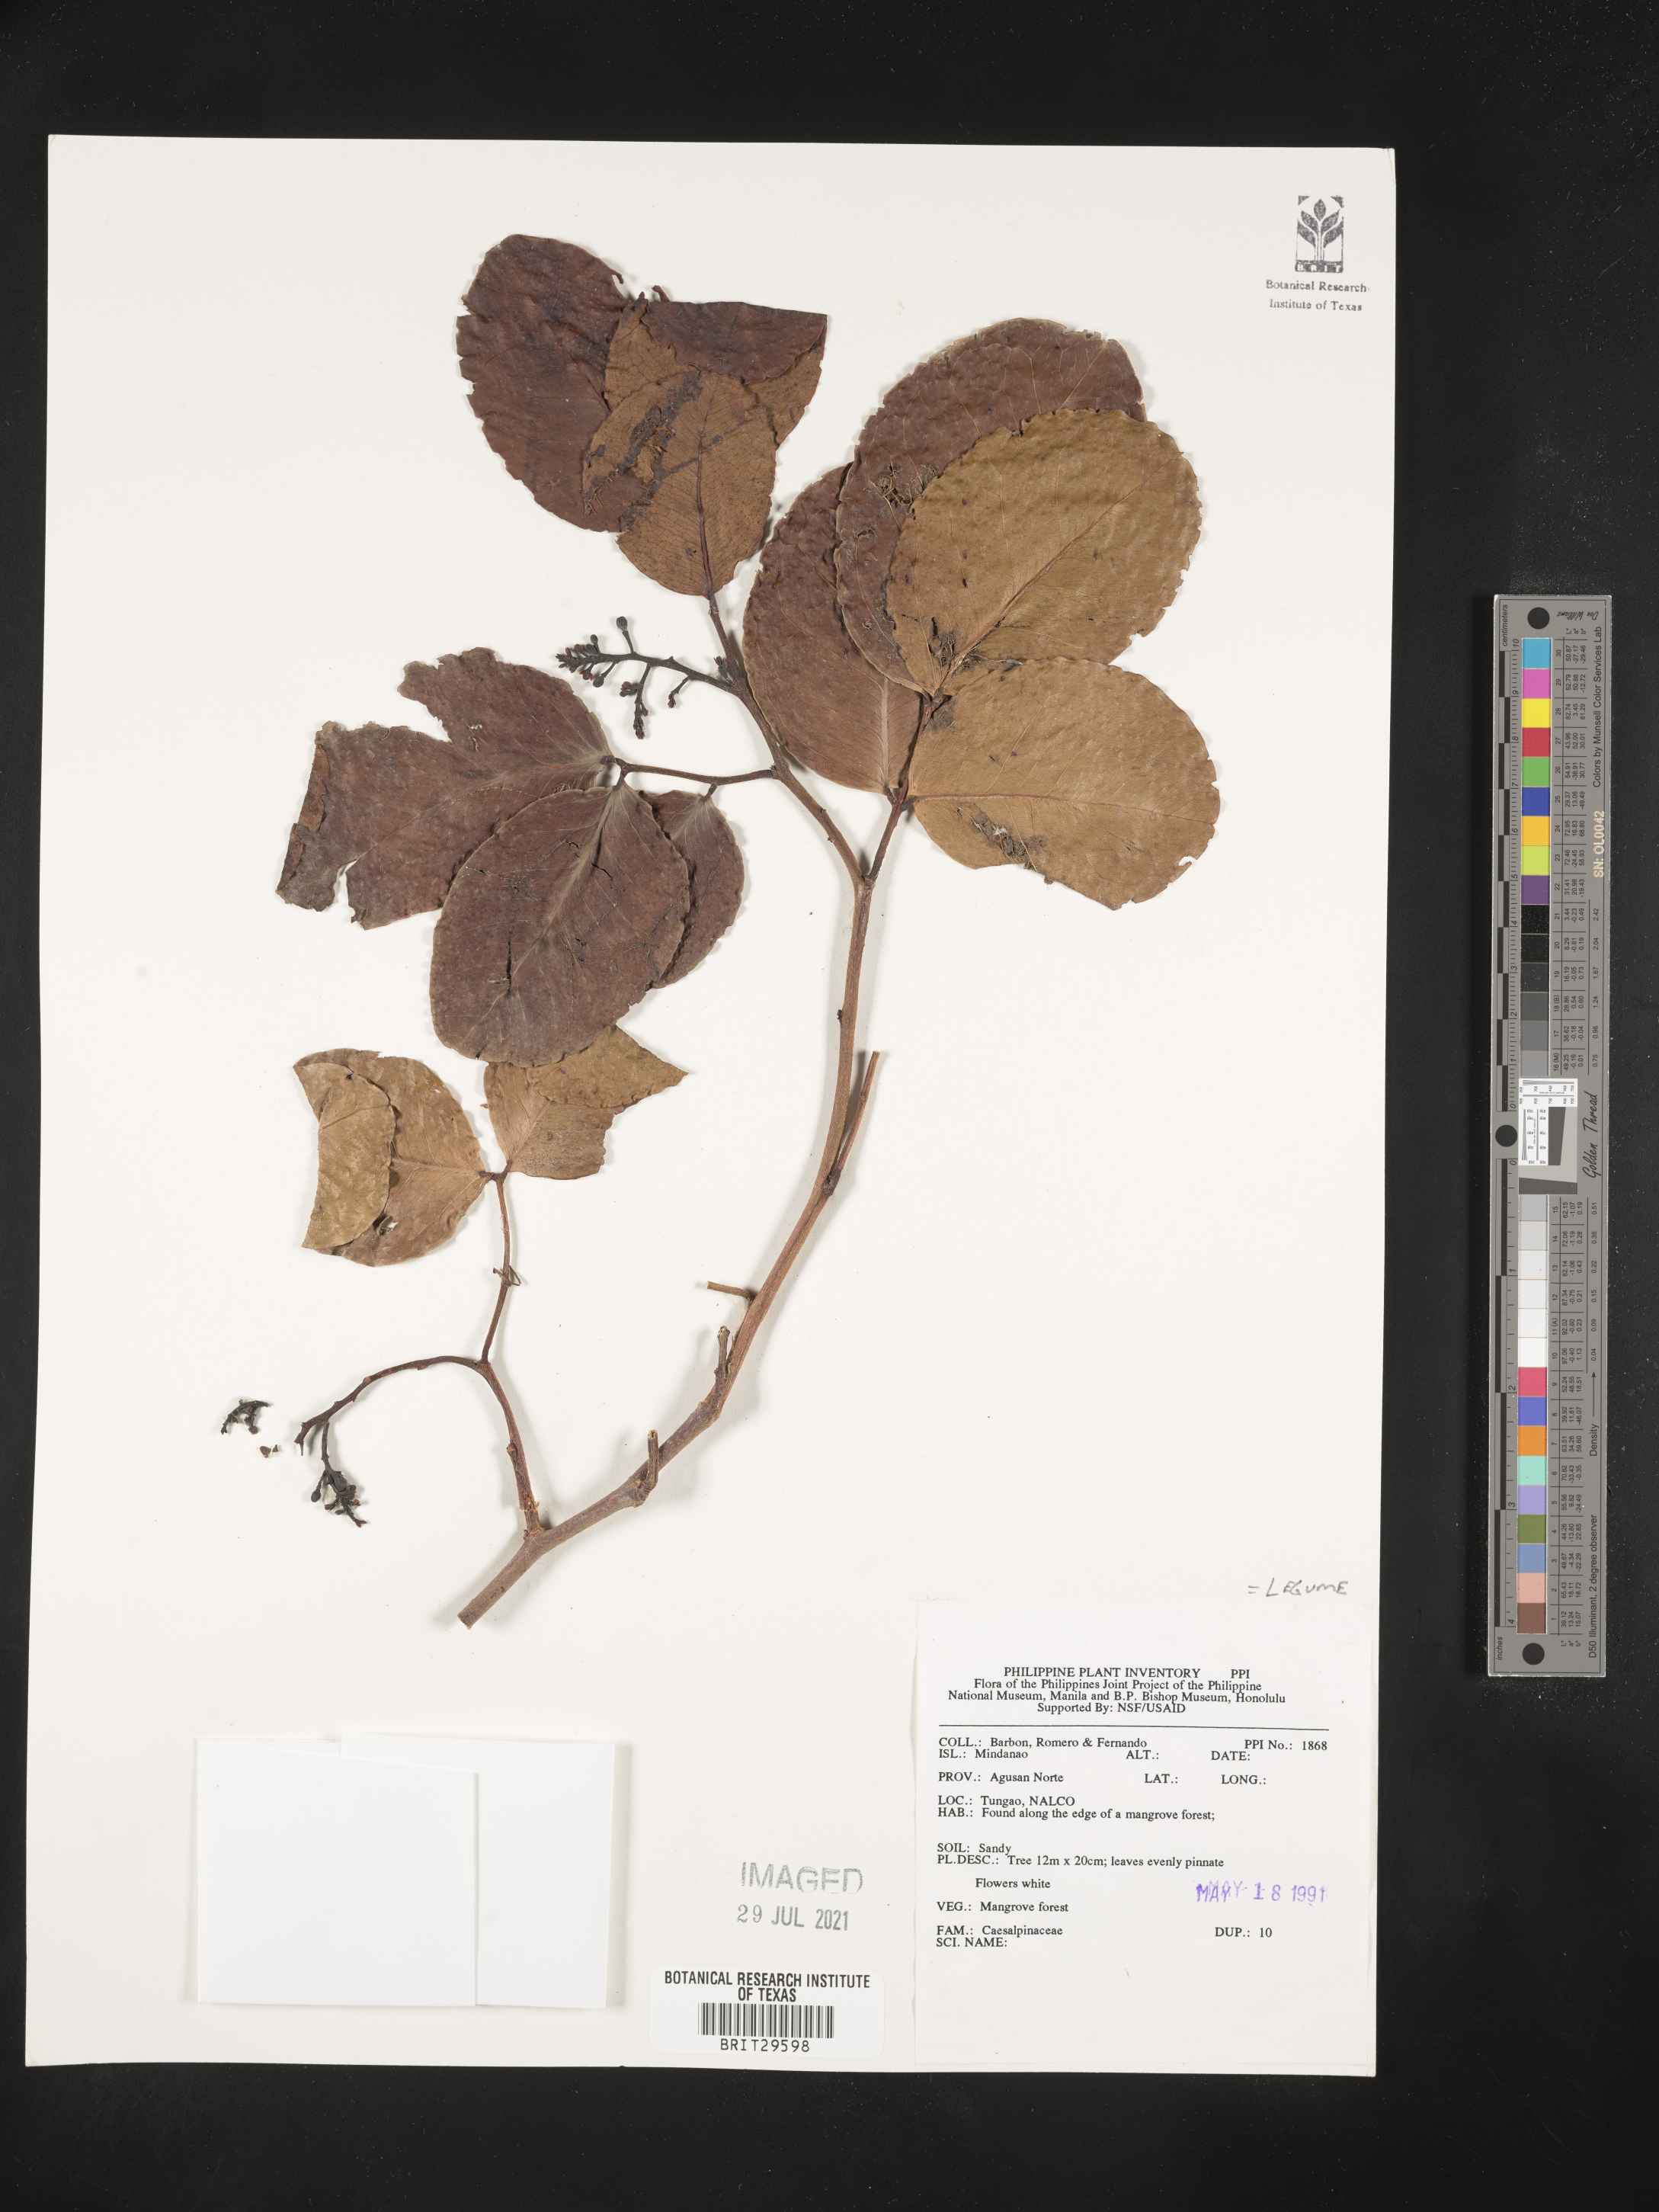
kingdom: Plantae
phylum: Tracheophyta
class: Magnoliopsida
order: Fabales
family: Fabaceae
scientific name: Fabaceae
